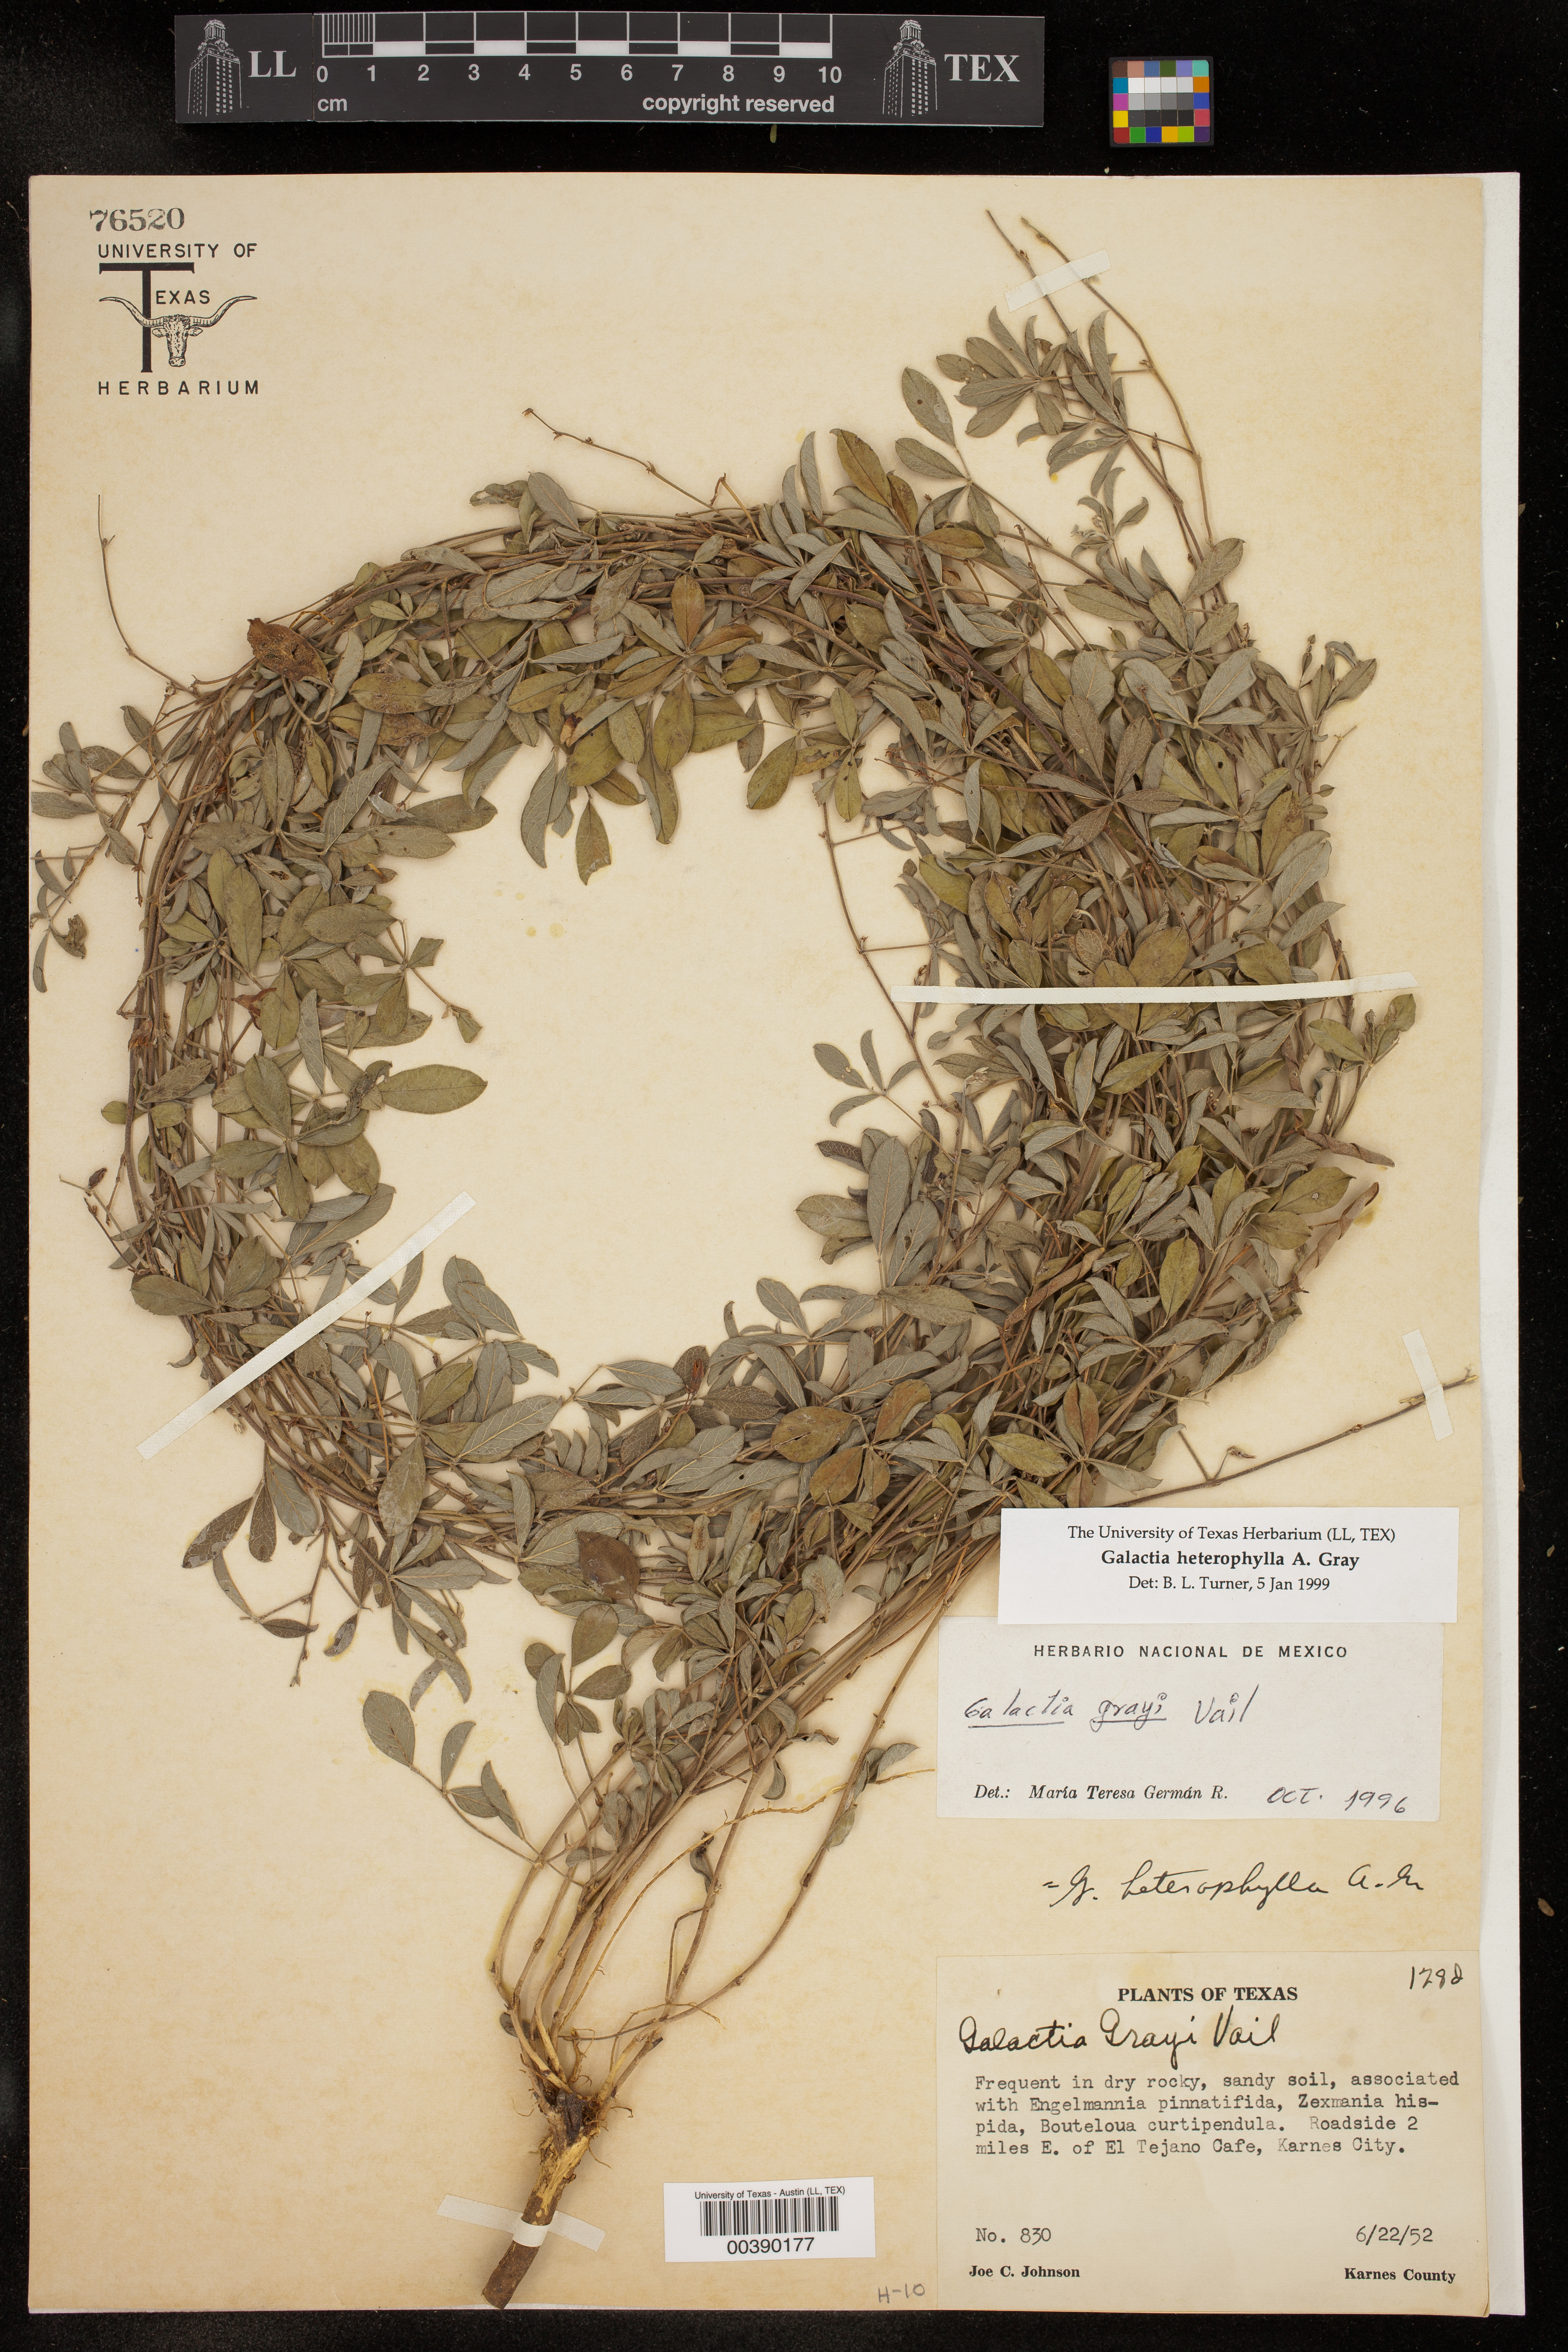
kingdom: Plantae
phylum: Tracheophyta
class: Magnoliopsida
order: Fabales
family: Fabaceae
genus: Galactia
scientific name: Galactia heterophylla
